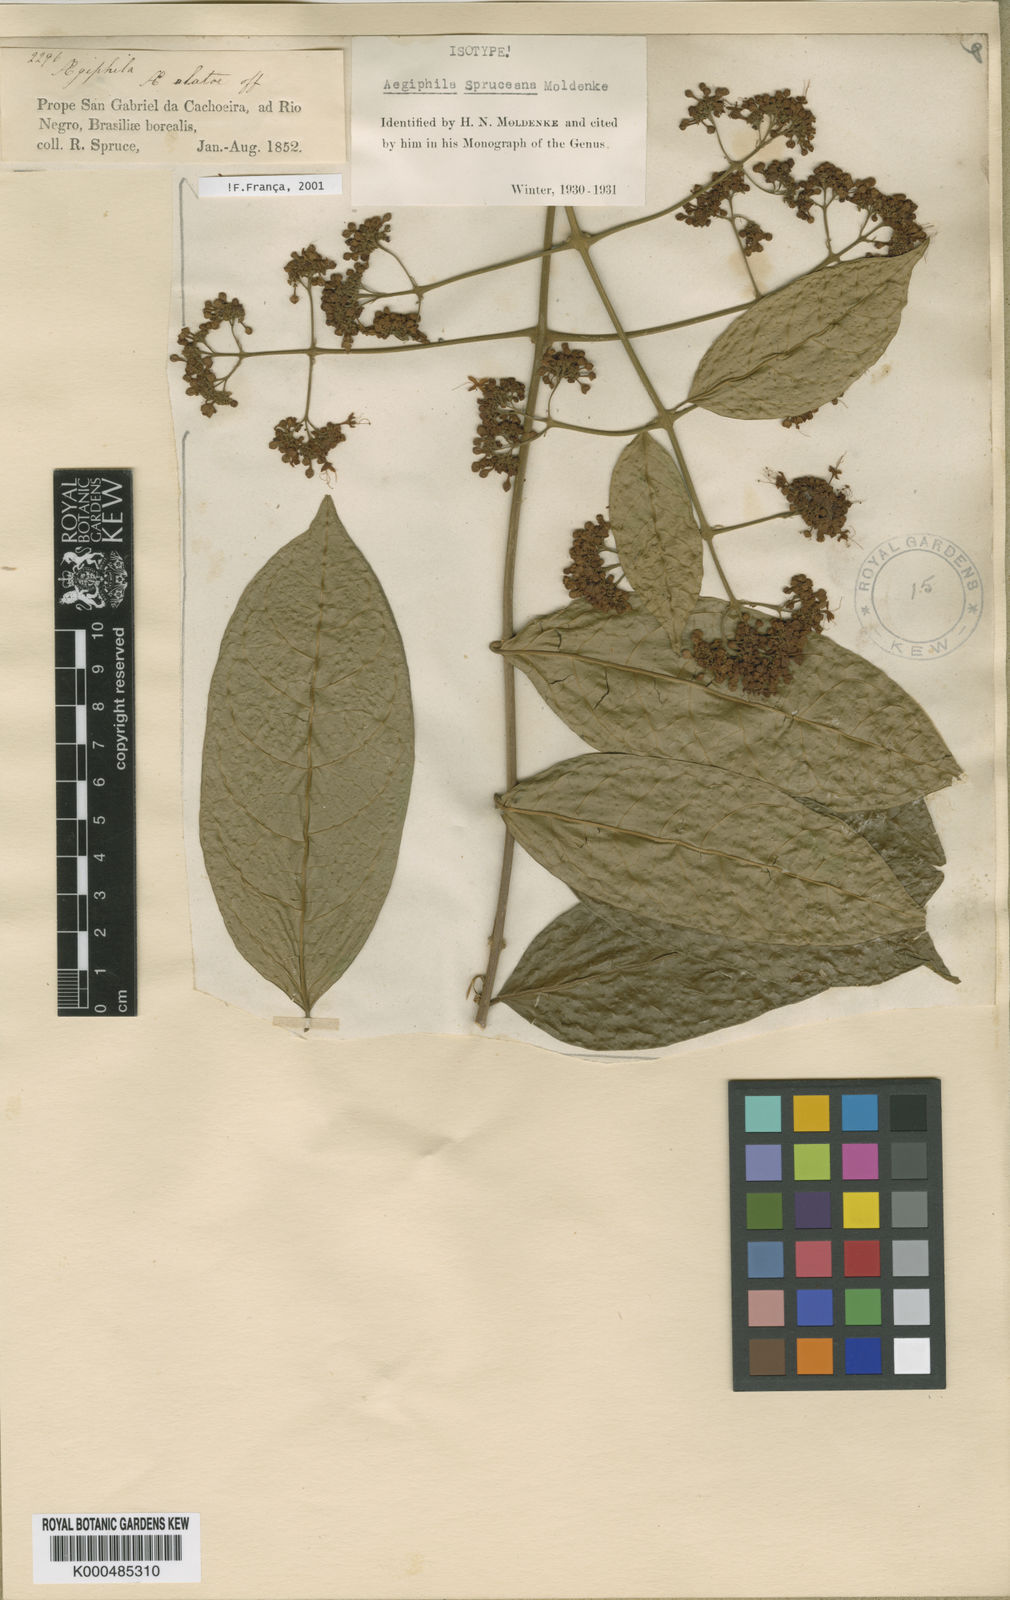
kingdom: Plantae
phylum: Tracheophyta
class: Magnoliopsida
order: Lamiales
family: Lamiaceae
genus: Aegiphila
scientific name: Aegiphila spruceana
